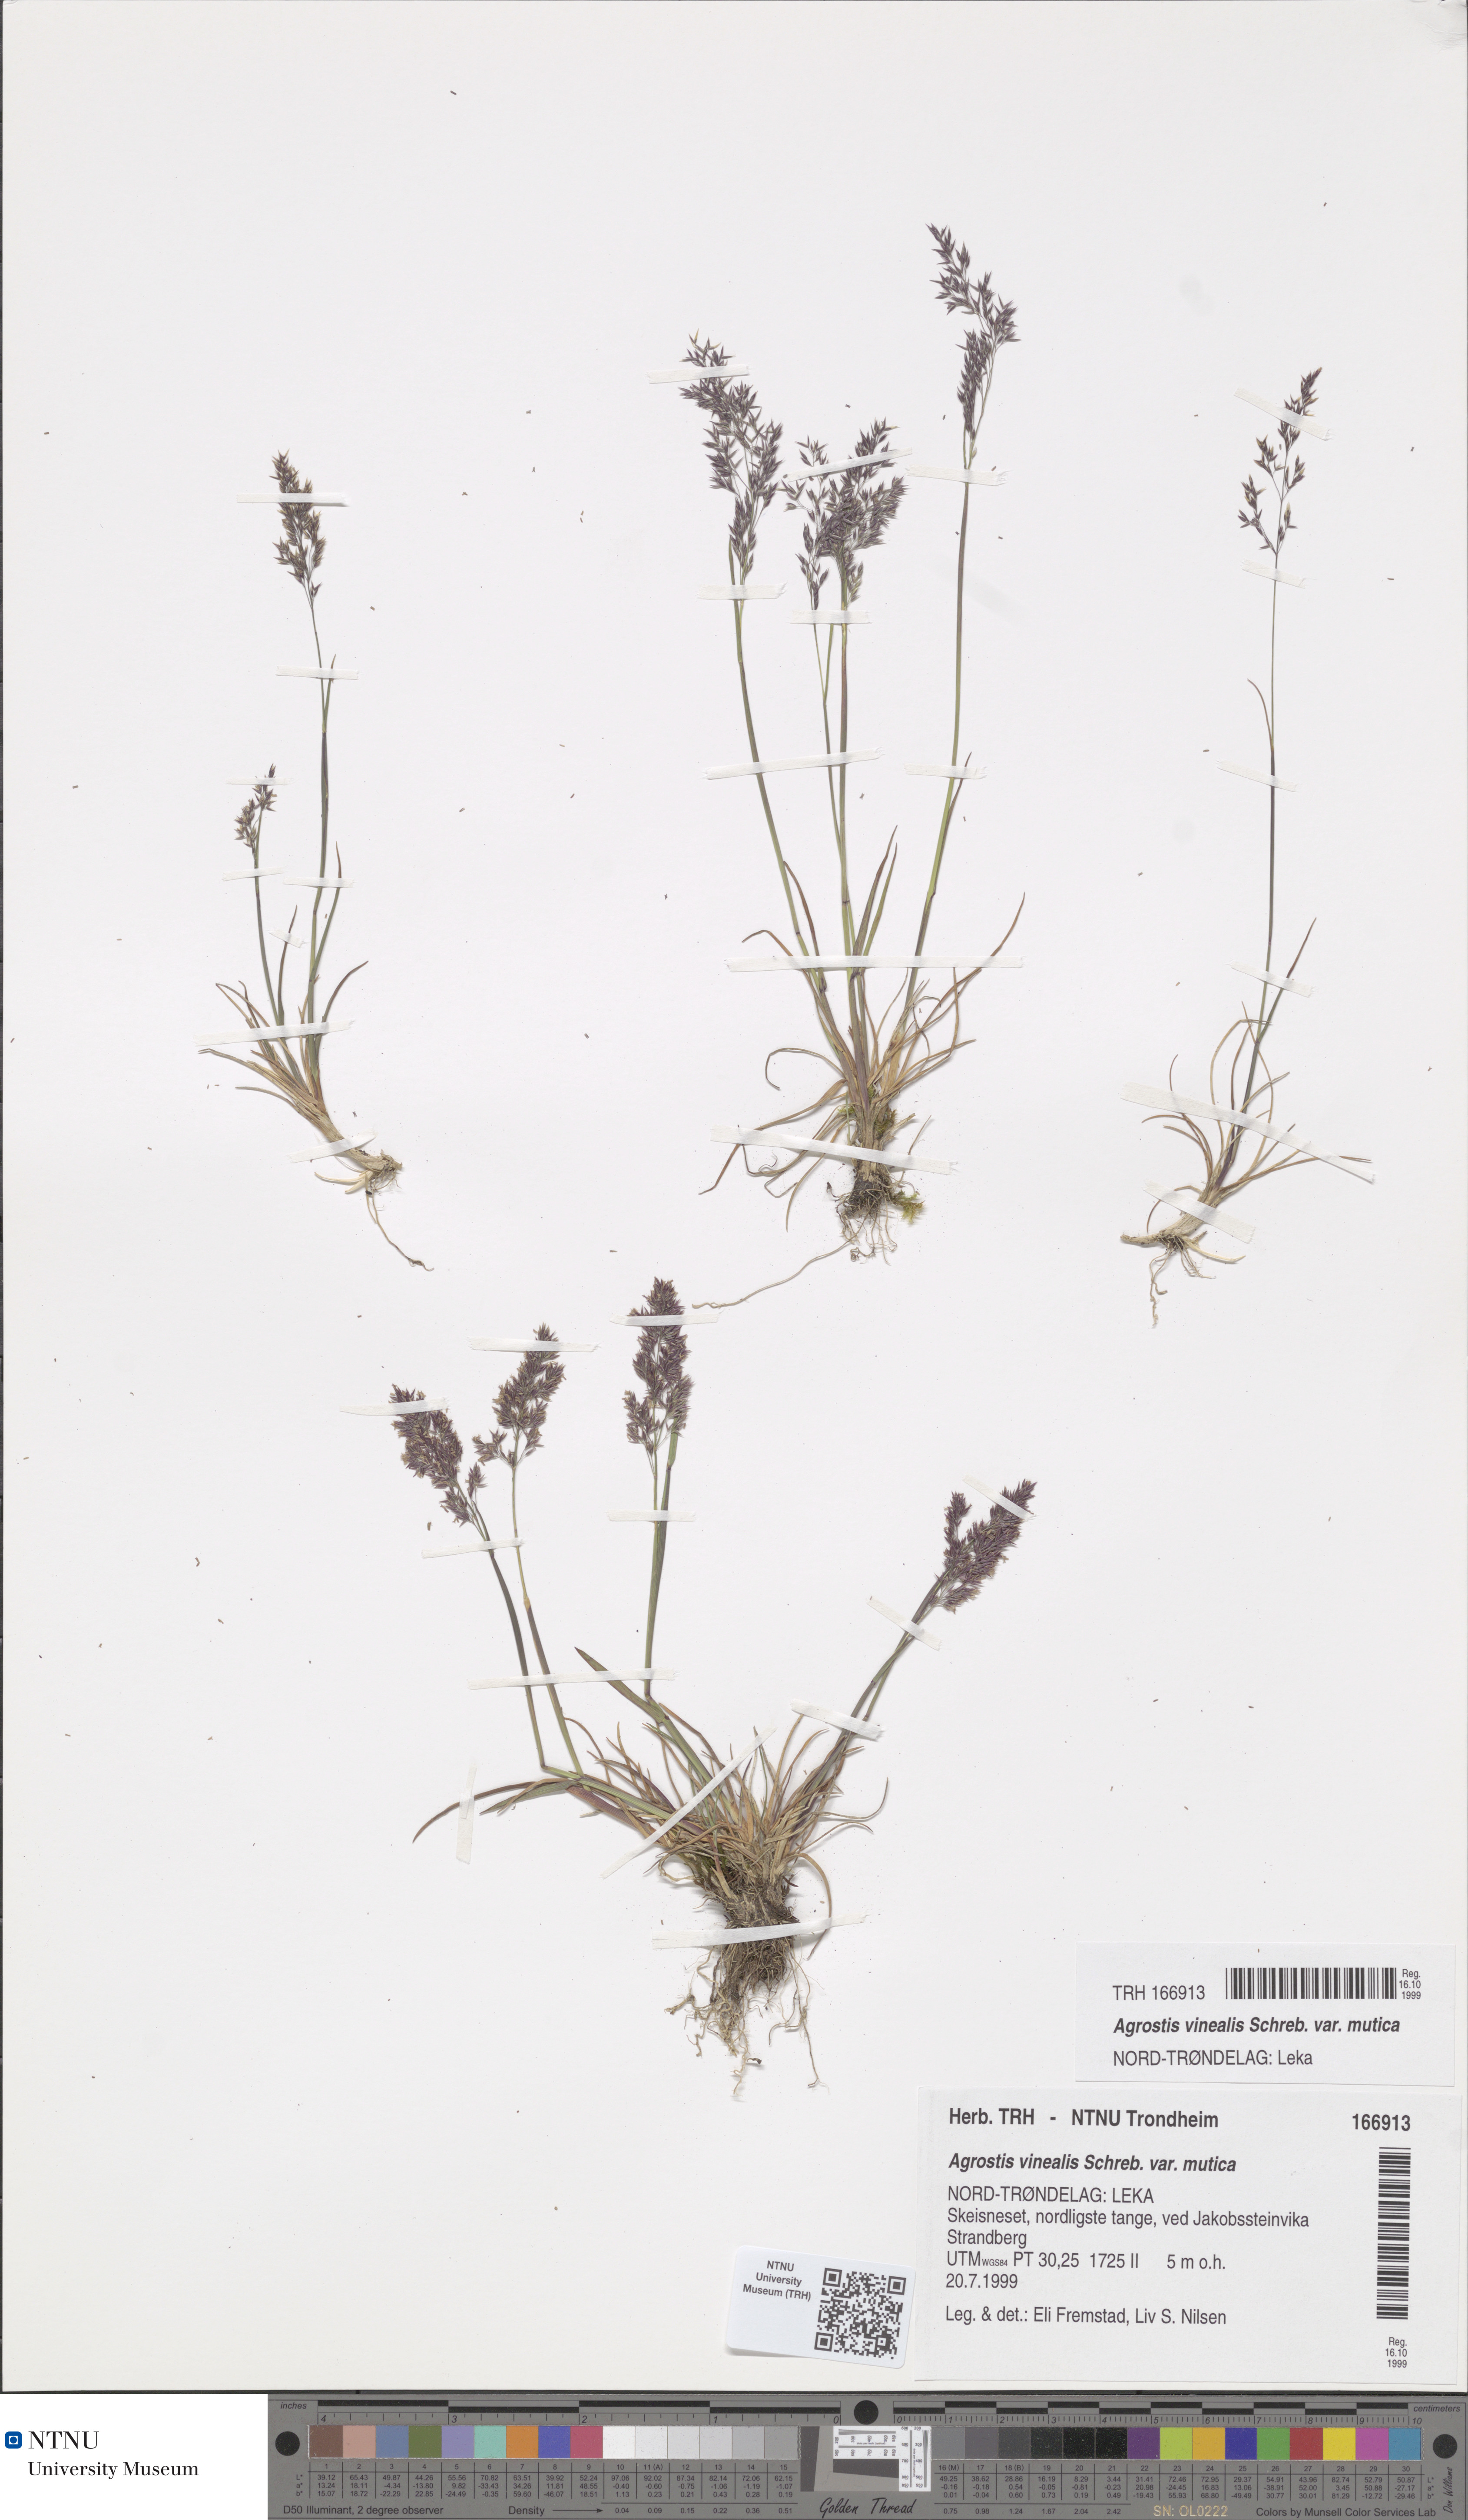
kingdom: Plantae
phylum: Tracheophyta
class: Liliopsida
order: Poales
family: Poaceae
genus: Agrostis
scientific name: Agrostis vinealis
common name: Brown bent
